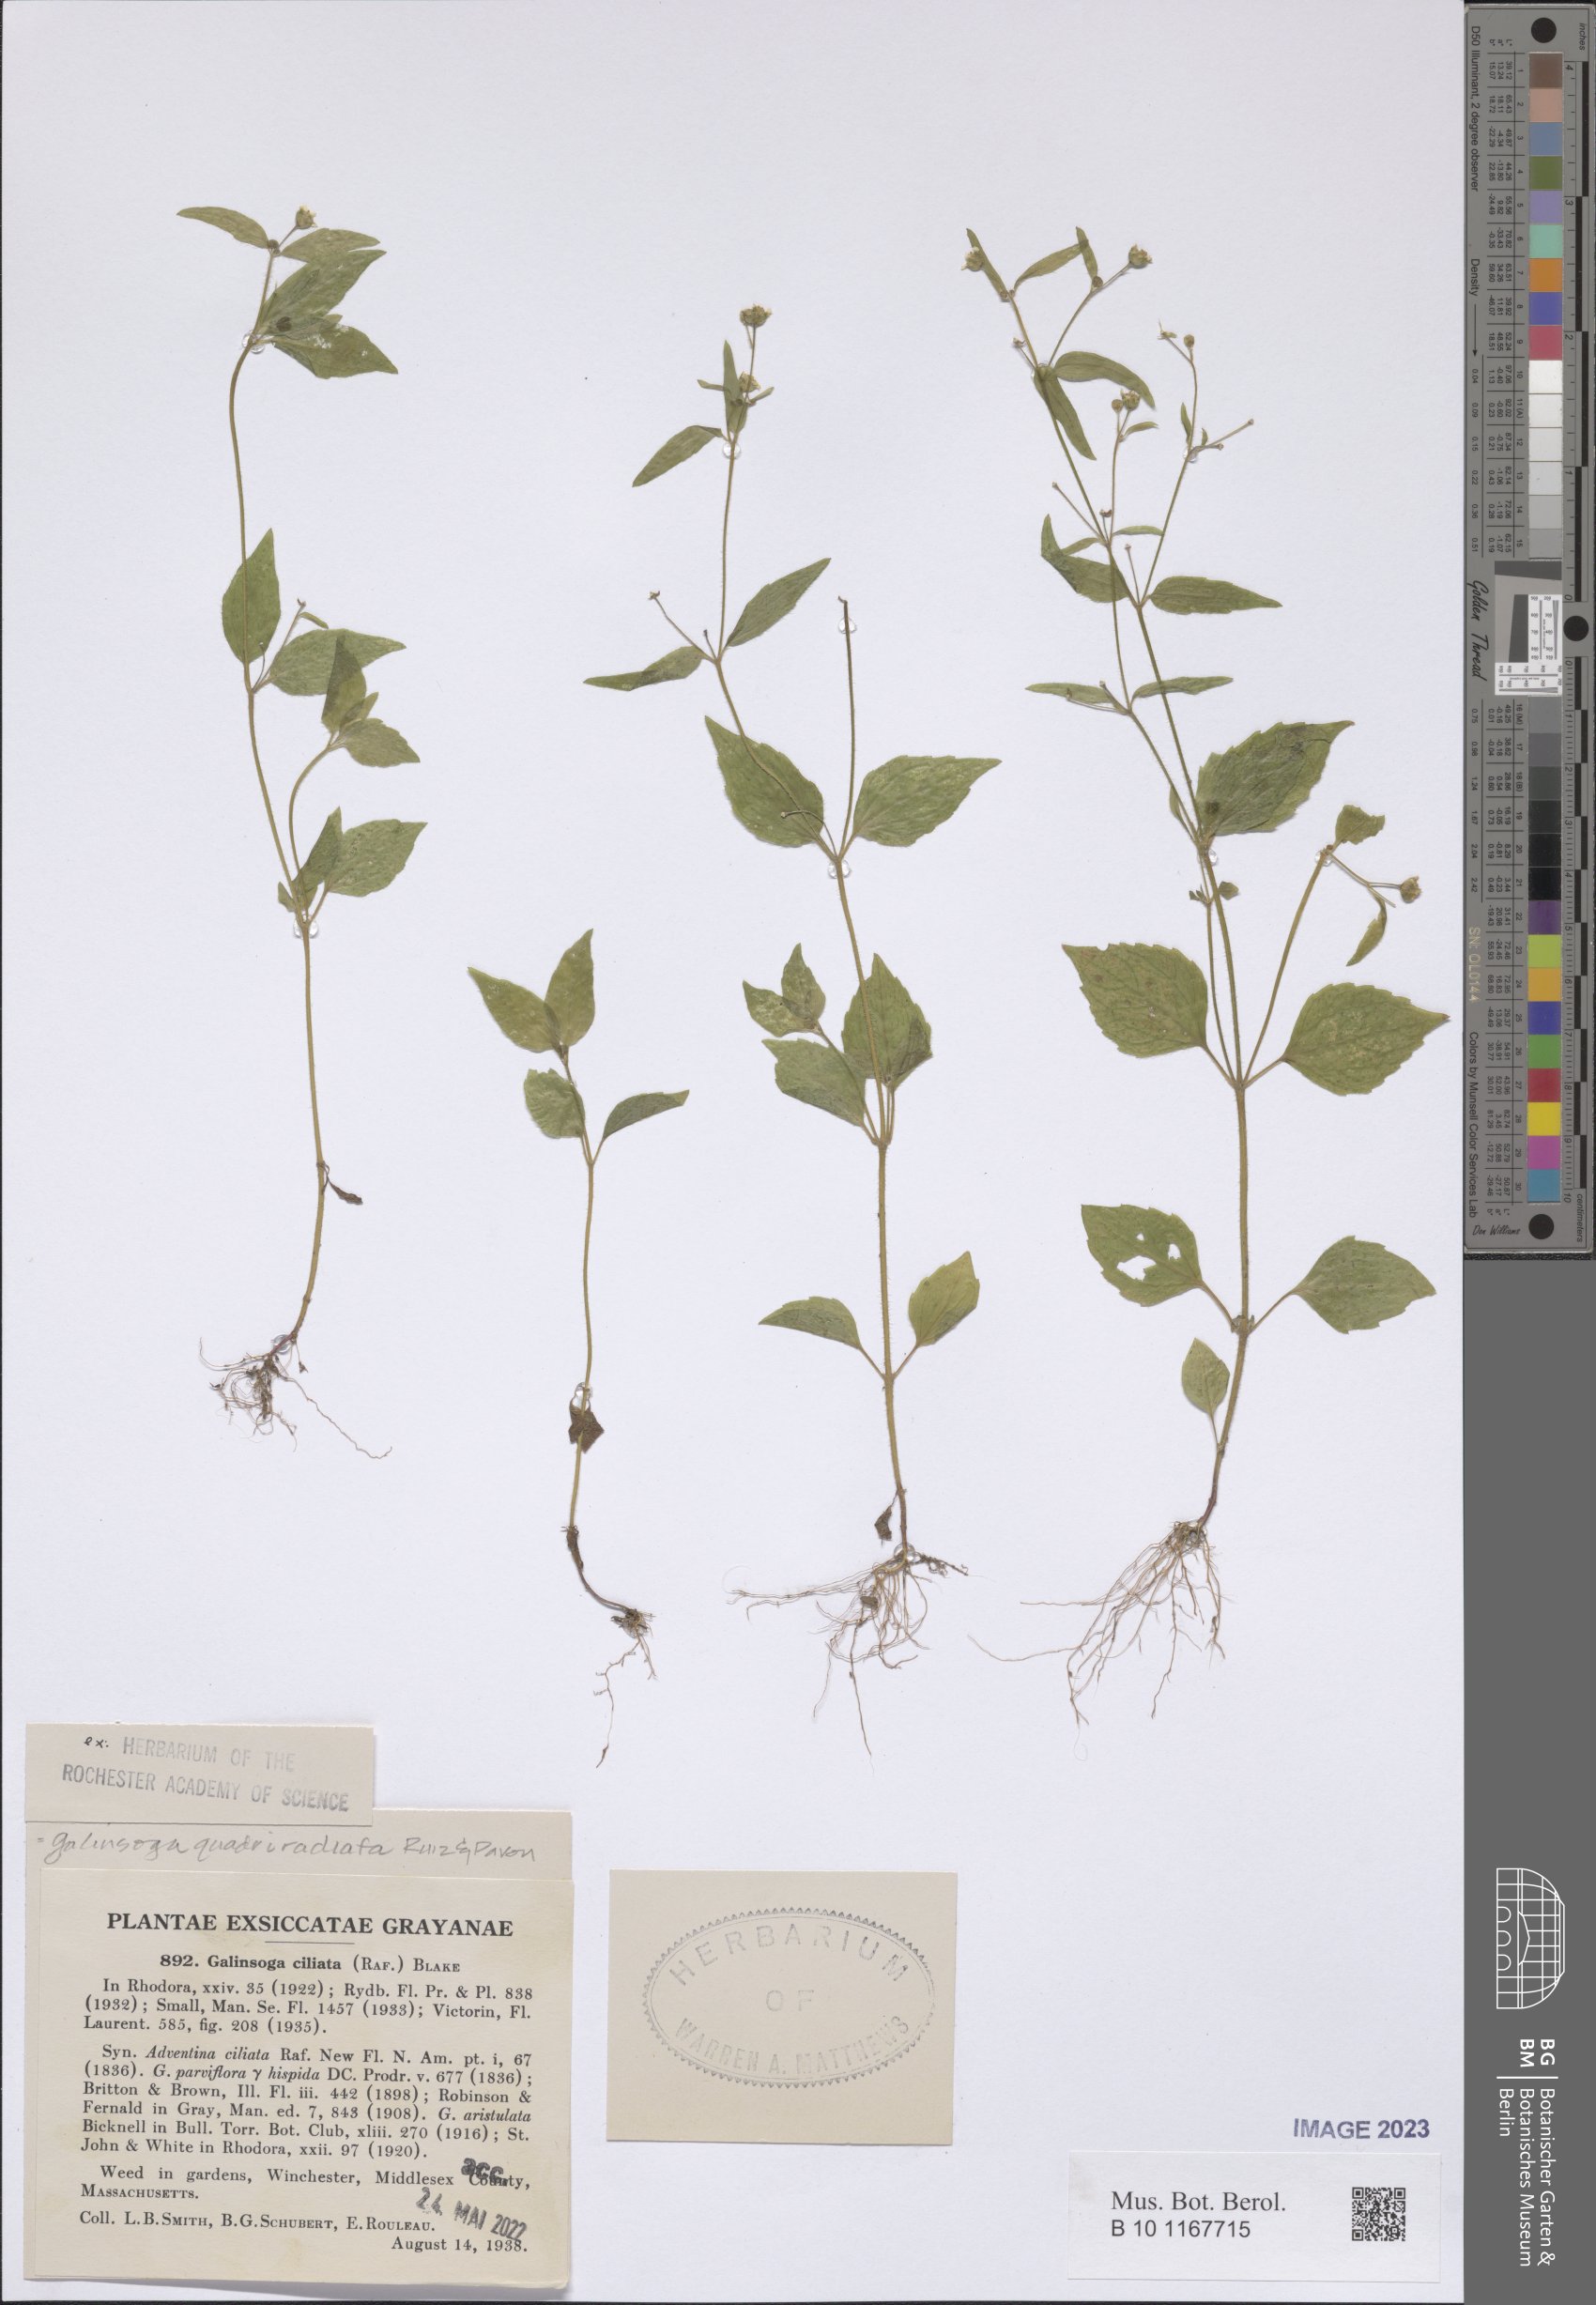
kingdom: Plantae
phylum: Tracheophyta
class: Magnoliopsida
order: Asterales
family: Asteraceae
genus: Galinsoga
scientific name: Galinsoga quadriradiata
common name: Shaggy soldier
